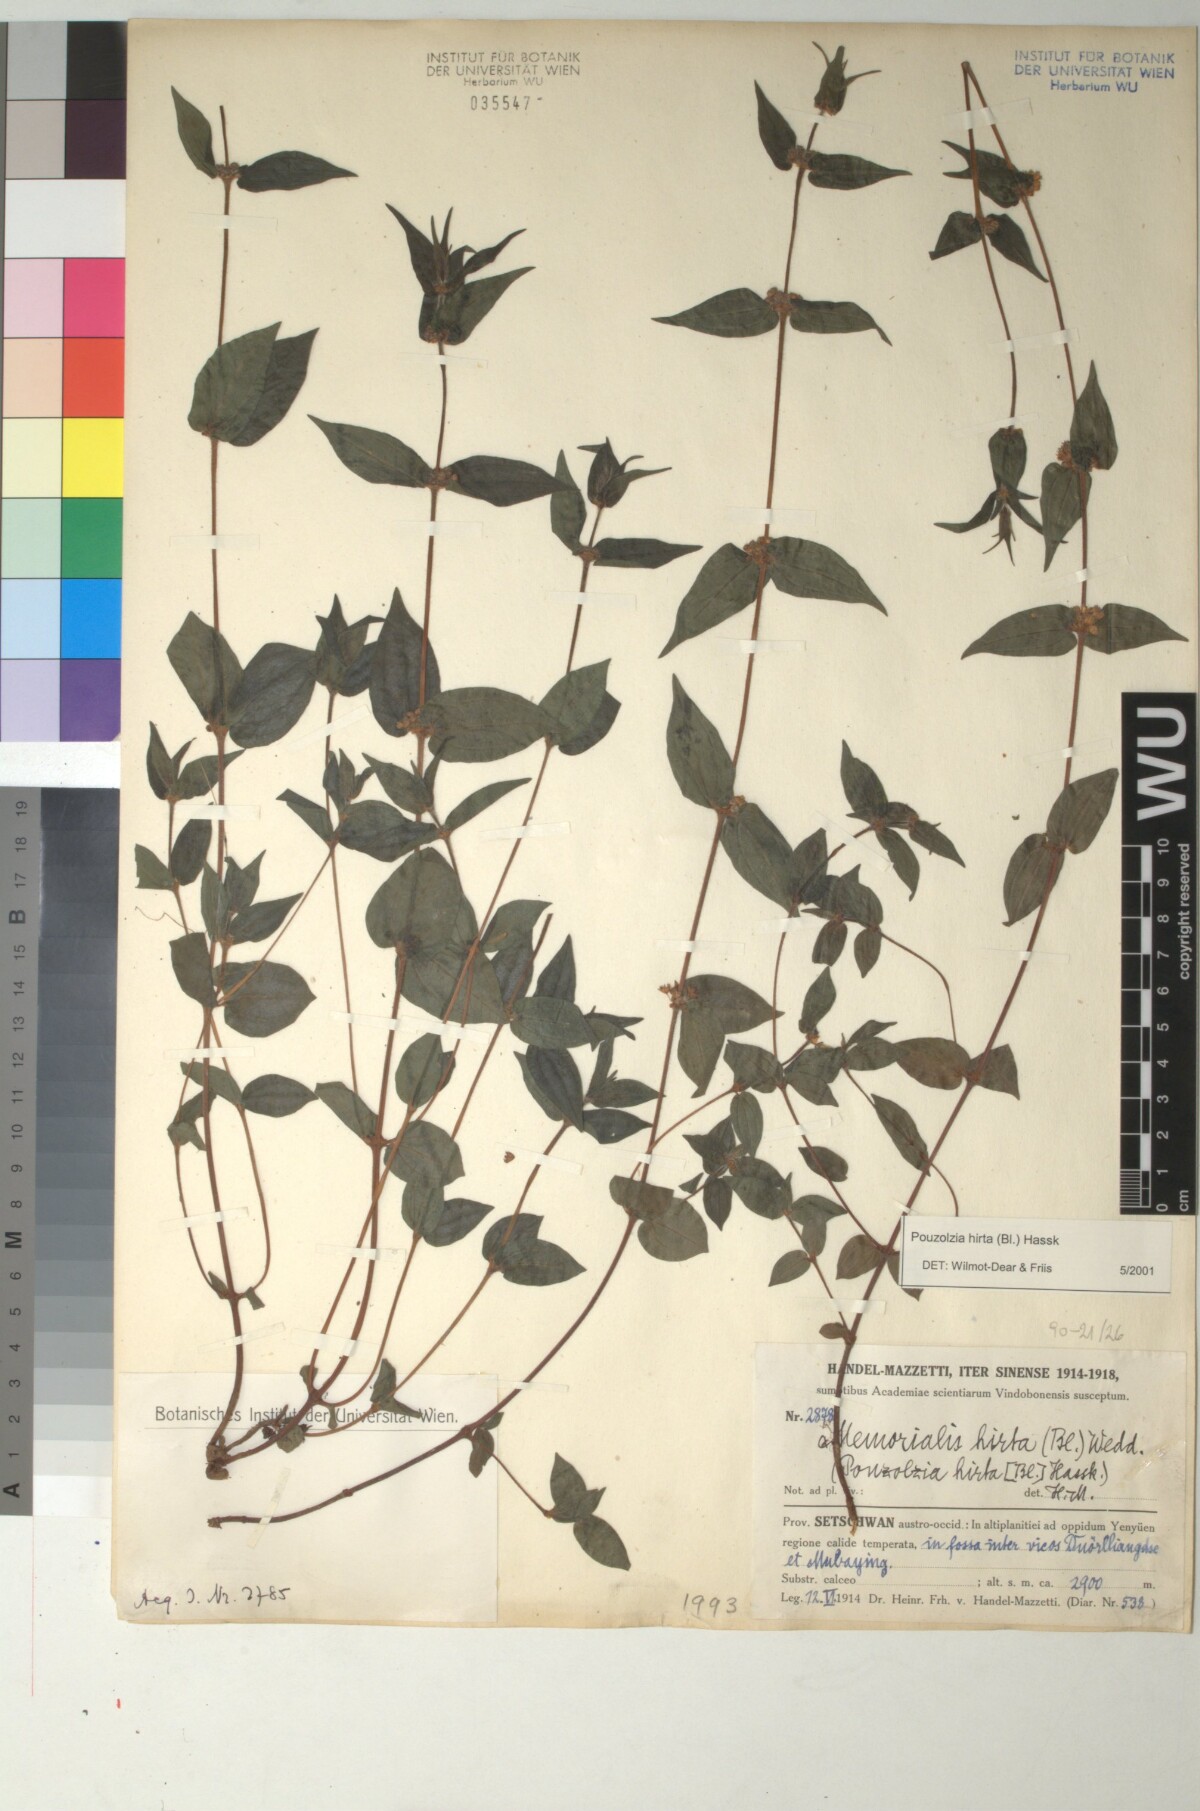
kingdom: Plantae
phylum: Tracheophyta
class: Magnoliopsida
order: Rosales
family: Urticaceae
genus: Gonostegia
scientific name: Gonostegia triandra
